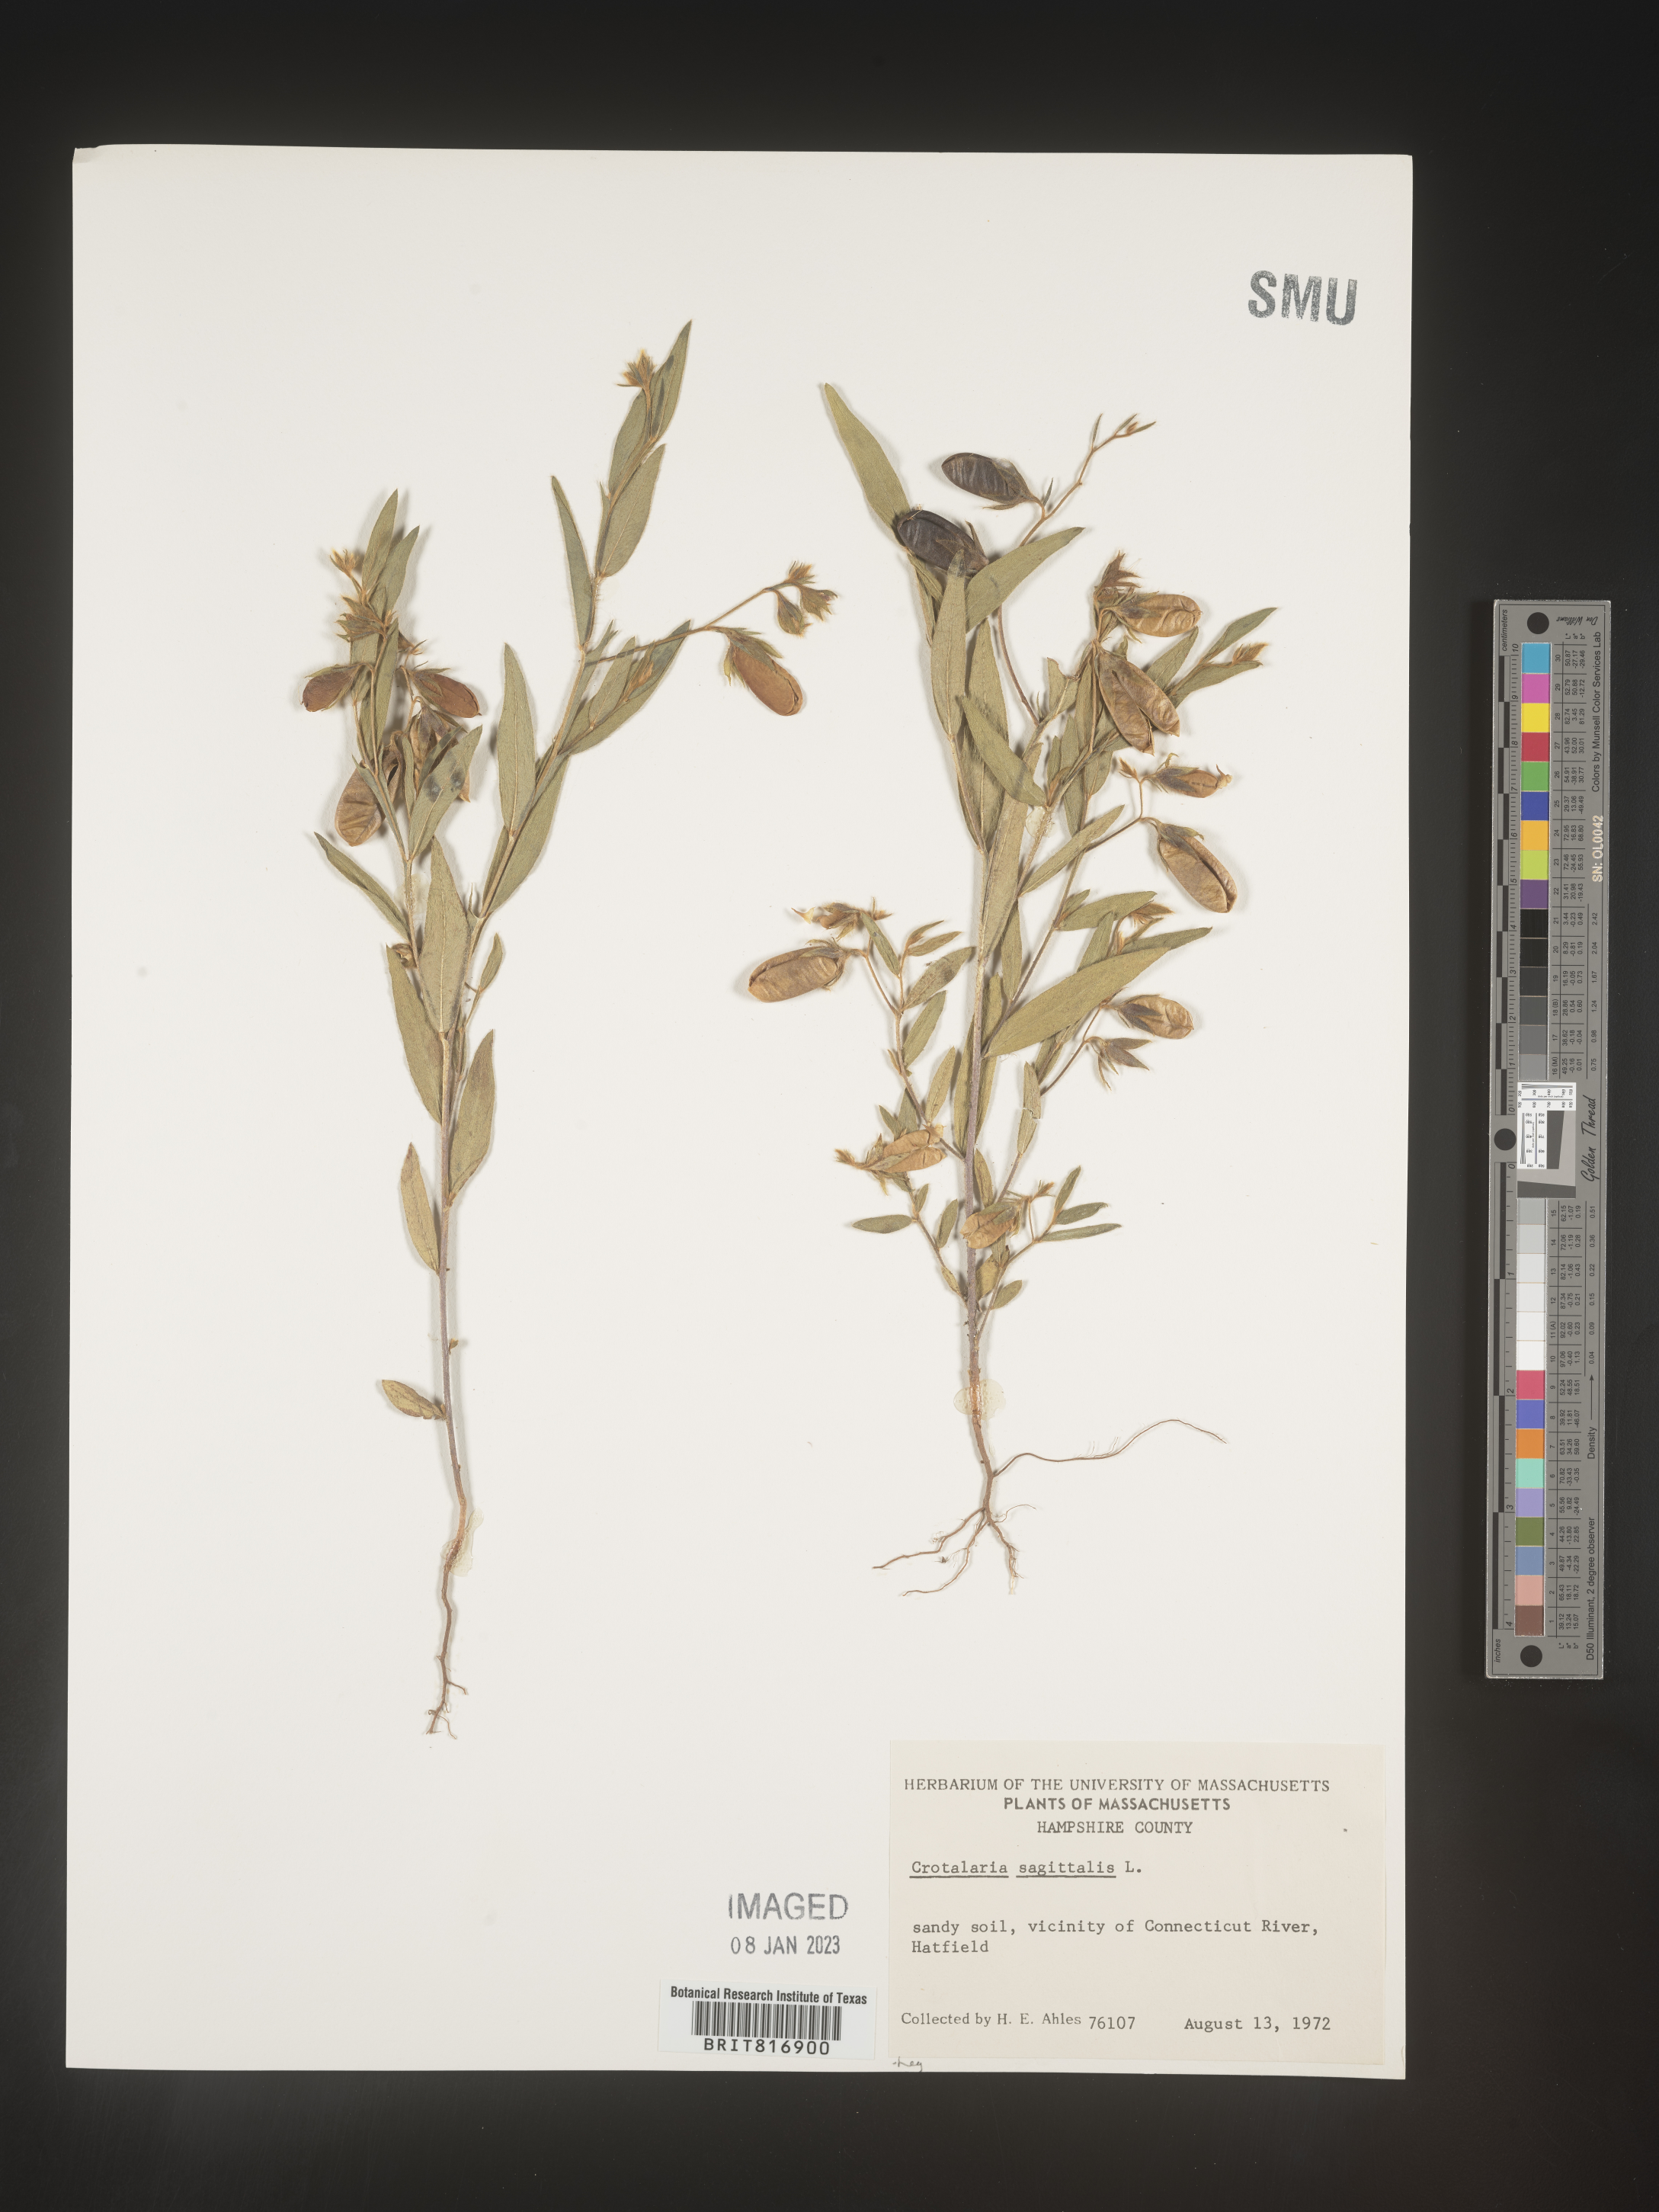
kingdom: Plantae
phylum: Tracheophyta
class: Magnoliopsida
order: Fabales
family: Fabaceae
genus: Crotalaria
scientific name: Crotalaria sagittalis
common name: Arrowhead rattlebox
